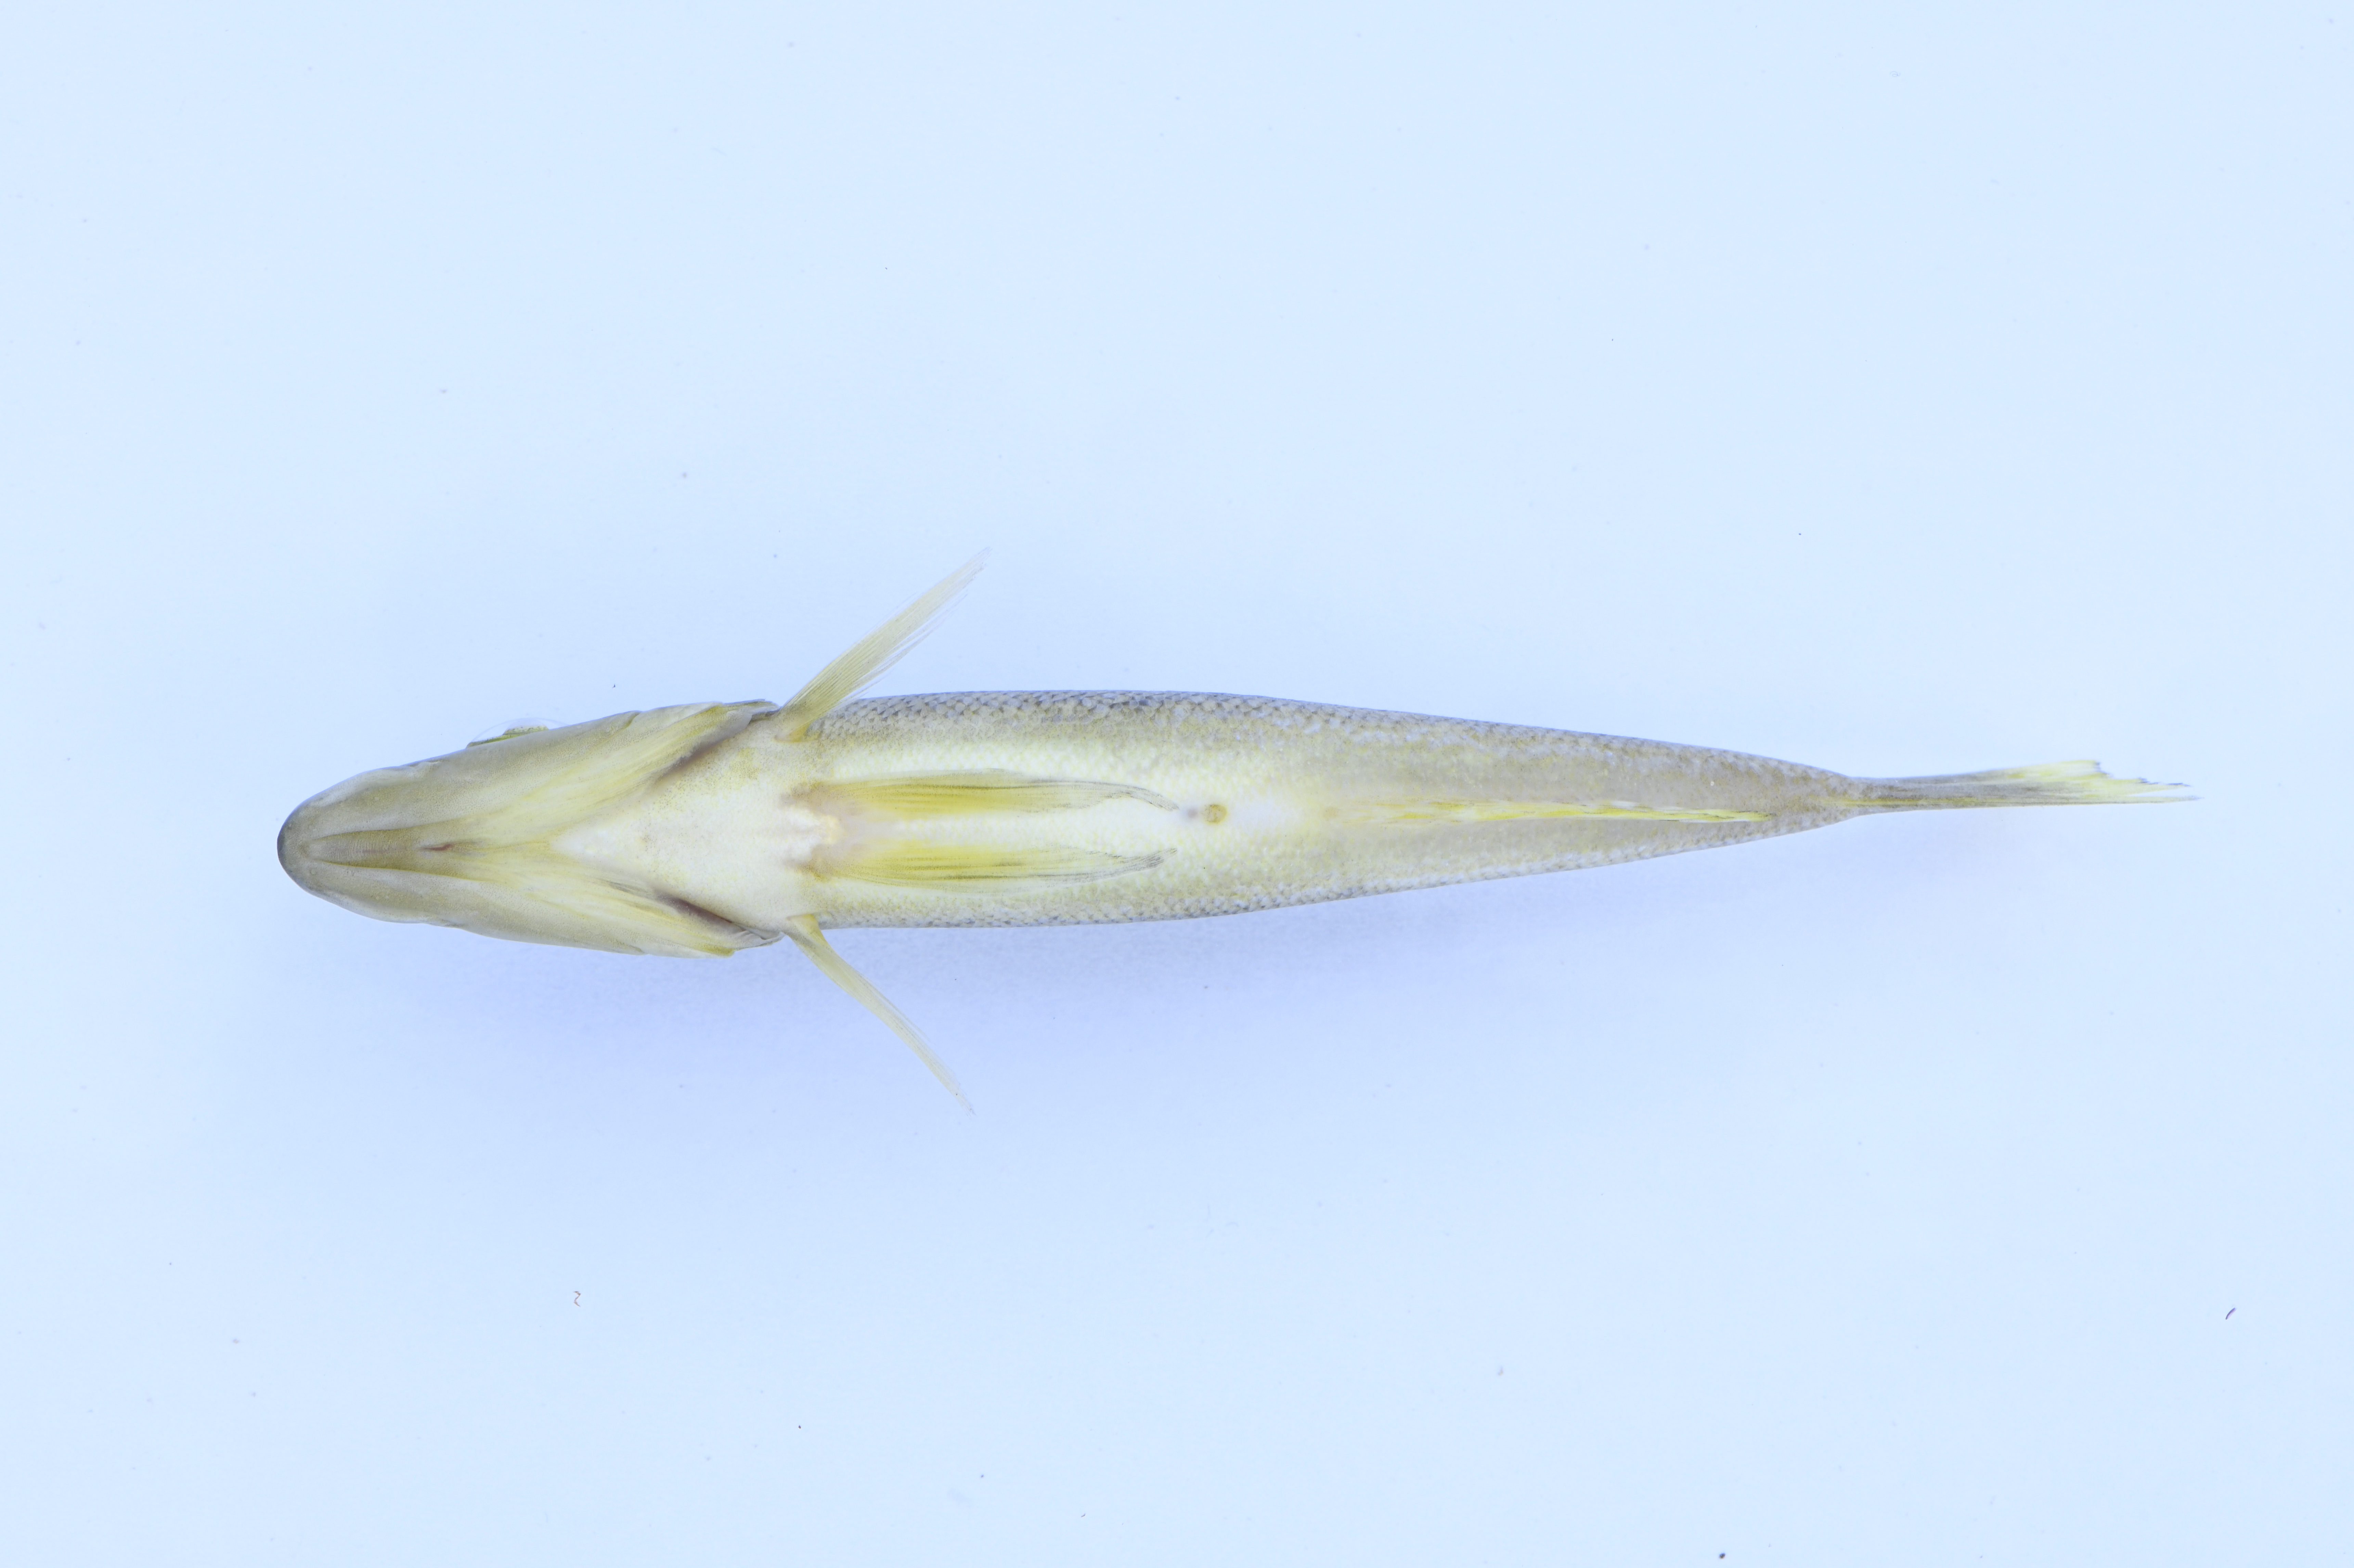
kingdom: Animalia
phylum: Chordata
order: Perciformes
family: Cichlidae
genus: Lepidiolamprologus
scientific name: Lepidiolamprologus attenuatus
